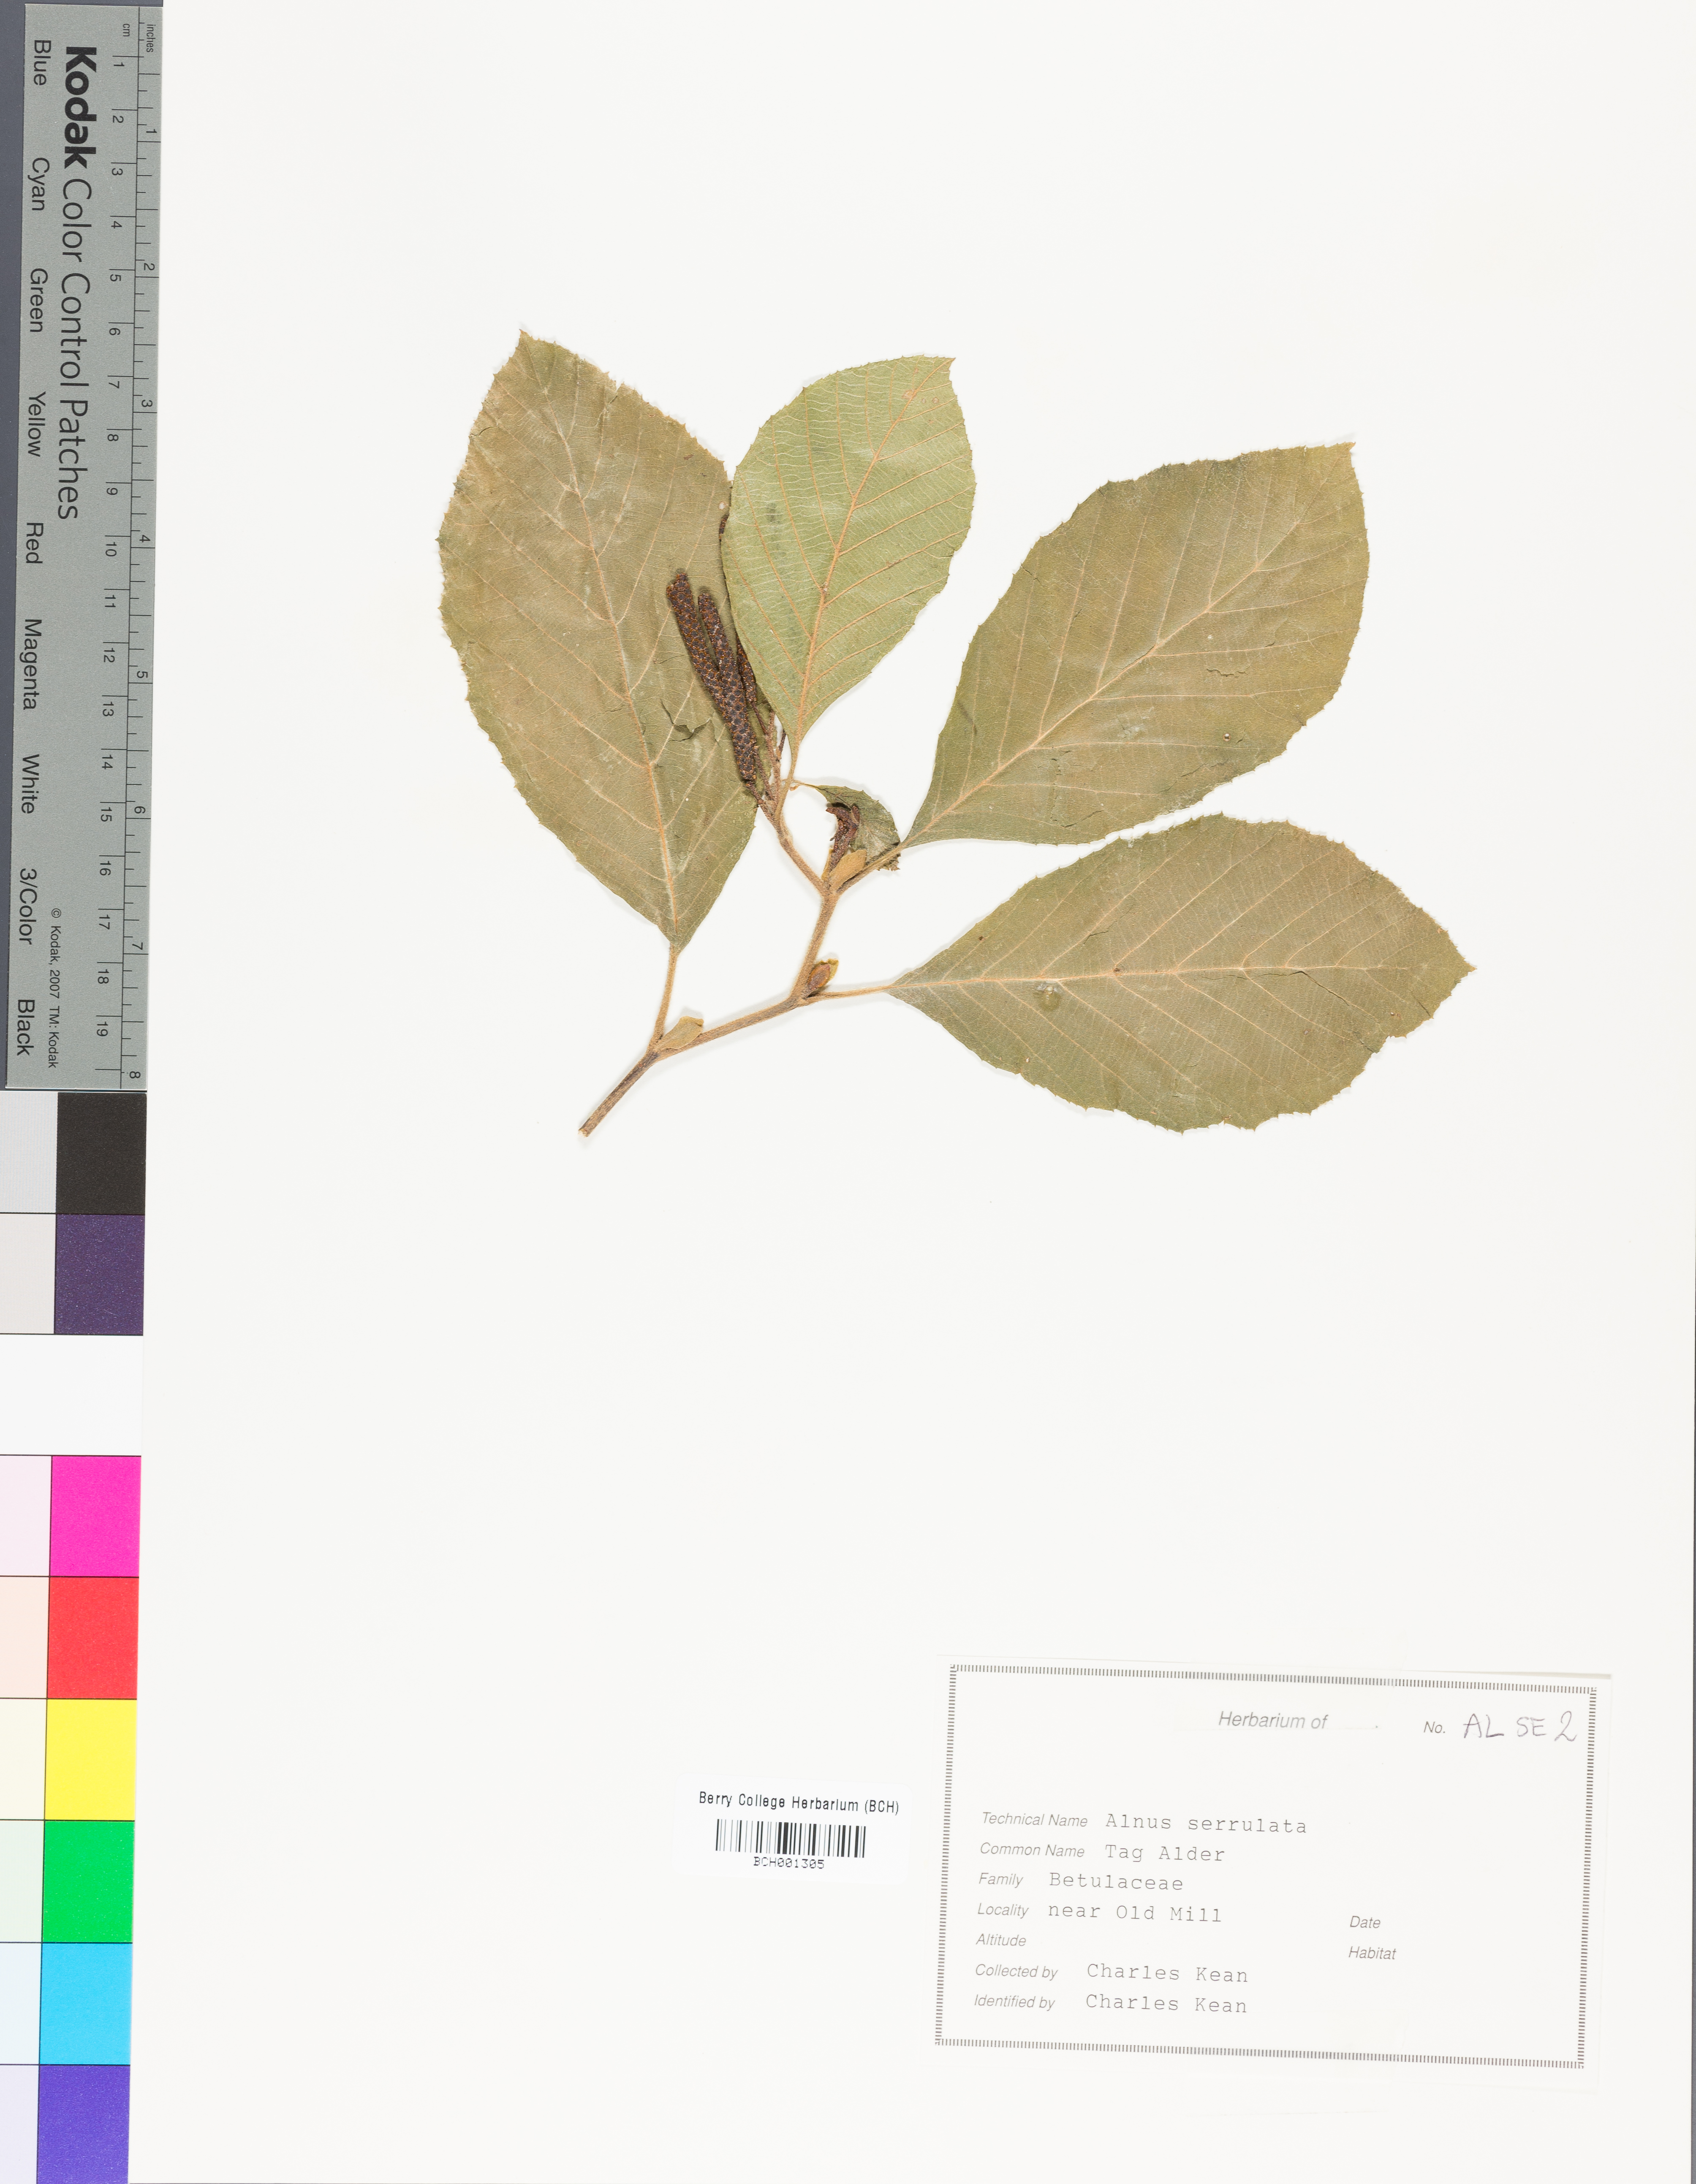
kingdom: Plantae
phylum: Tracheophyta
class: Magnoliopsida
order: Fagales
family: Betulaceae
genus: Alnus
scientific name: Alnus serrulata
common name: Hazel alder
